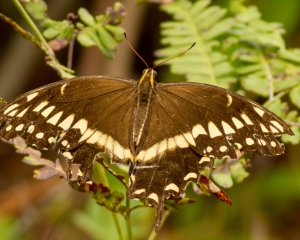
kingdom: Animalia
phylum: Arthropoda
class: Insecta
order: Lepidoptera
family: Papilionidae
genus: Pterourus
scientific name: Pterourus palamedes
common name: Palamedes Swallowtail
